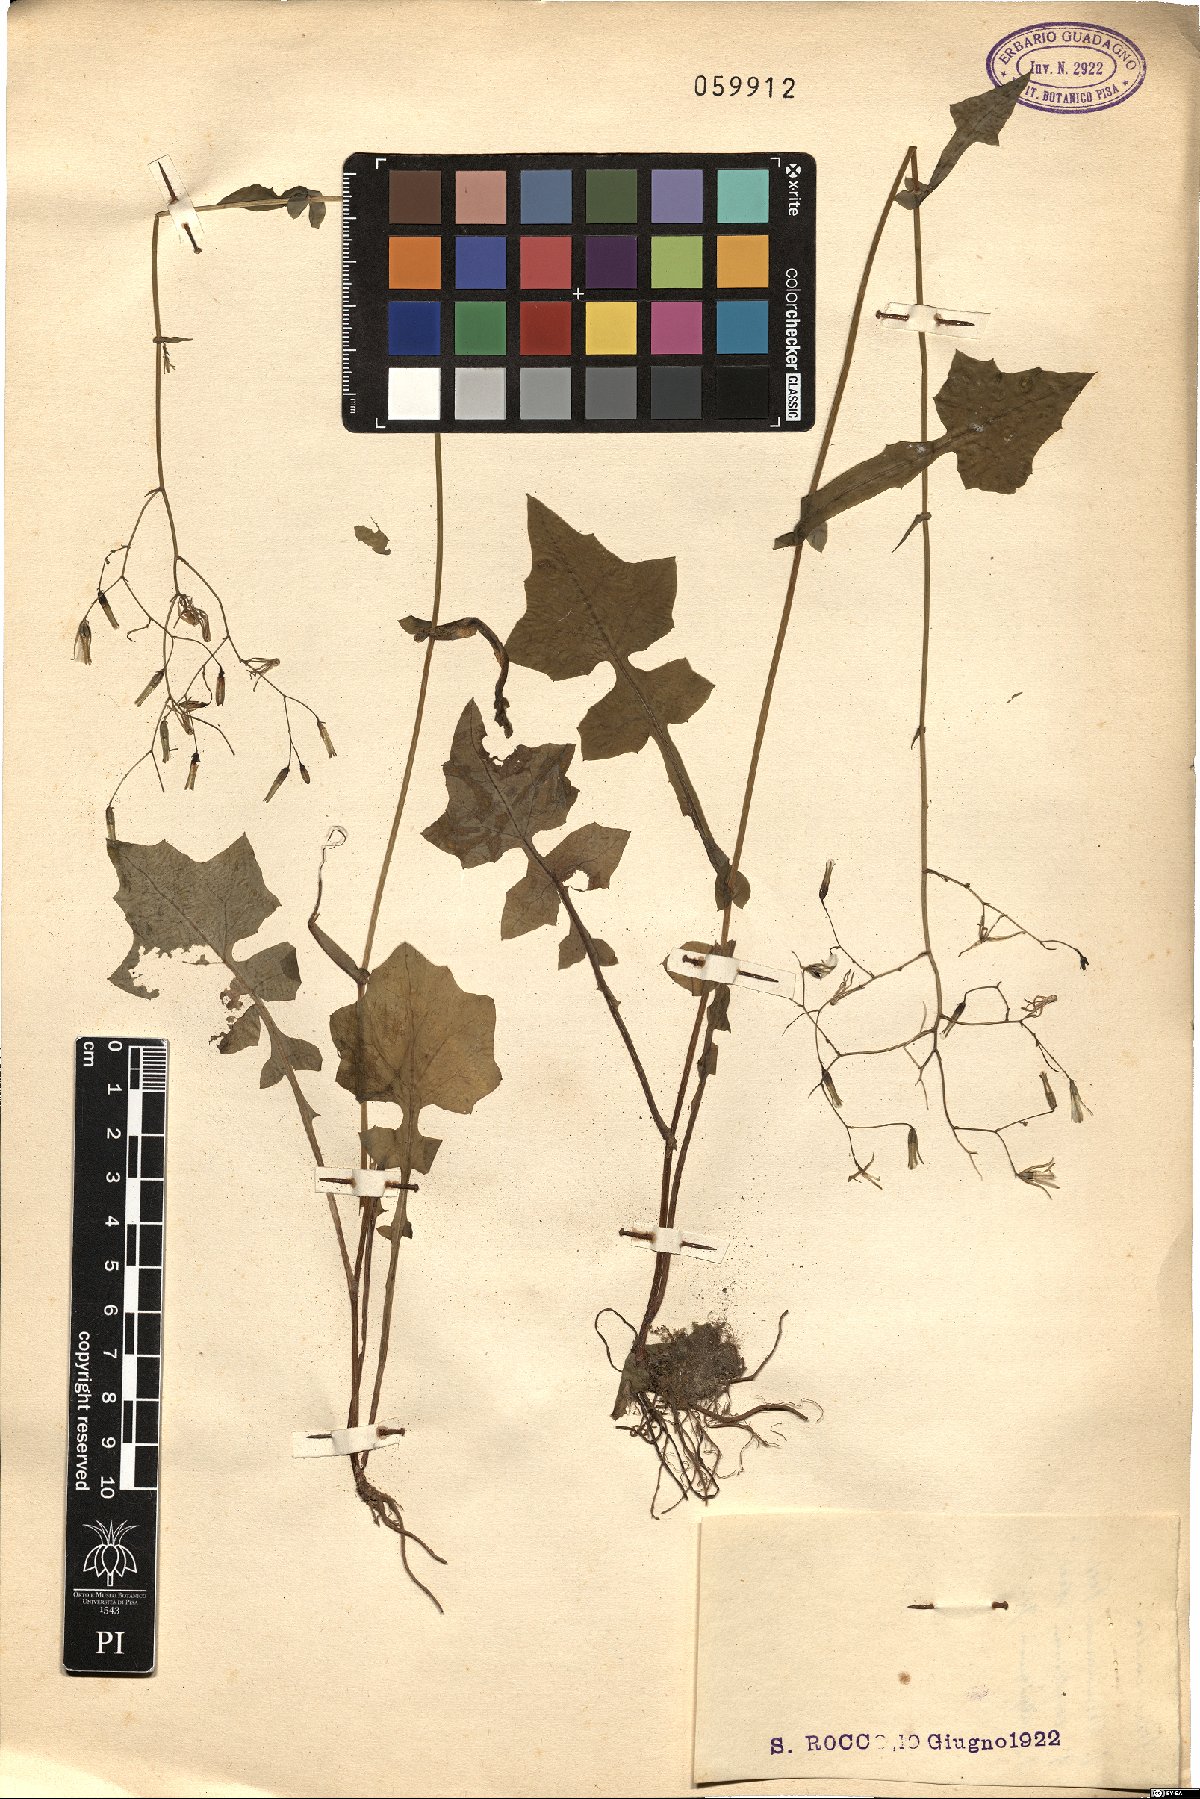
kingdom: Plantae
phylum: Tracheophyta
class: Magnoliopsida
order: Asterales
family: Asteraceae
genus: Mycelis
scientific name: Mycelis muralis
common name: Wall lettuce
